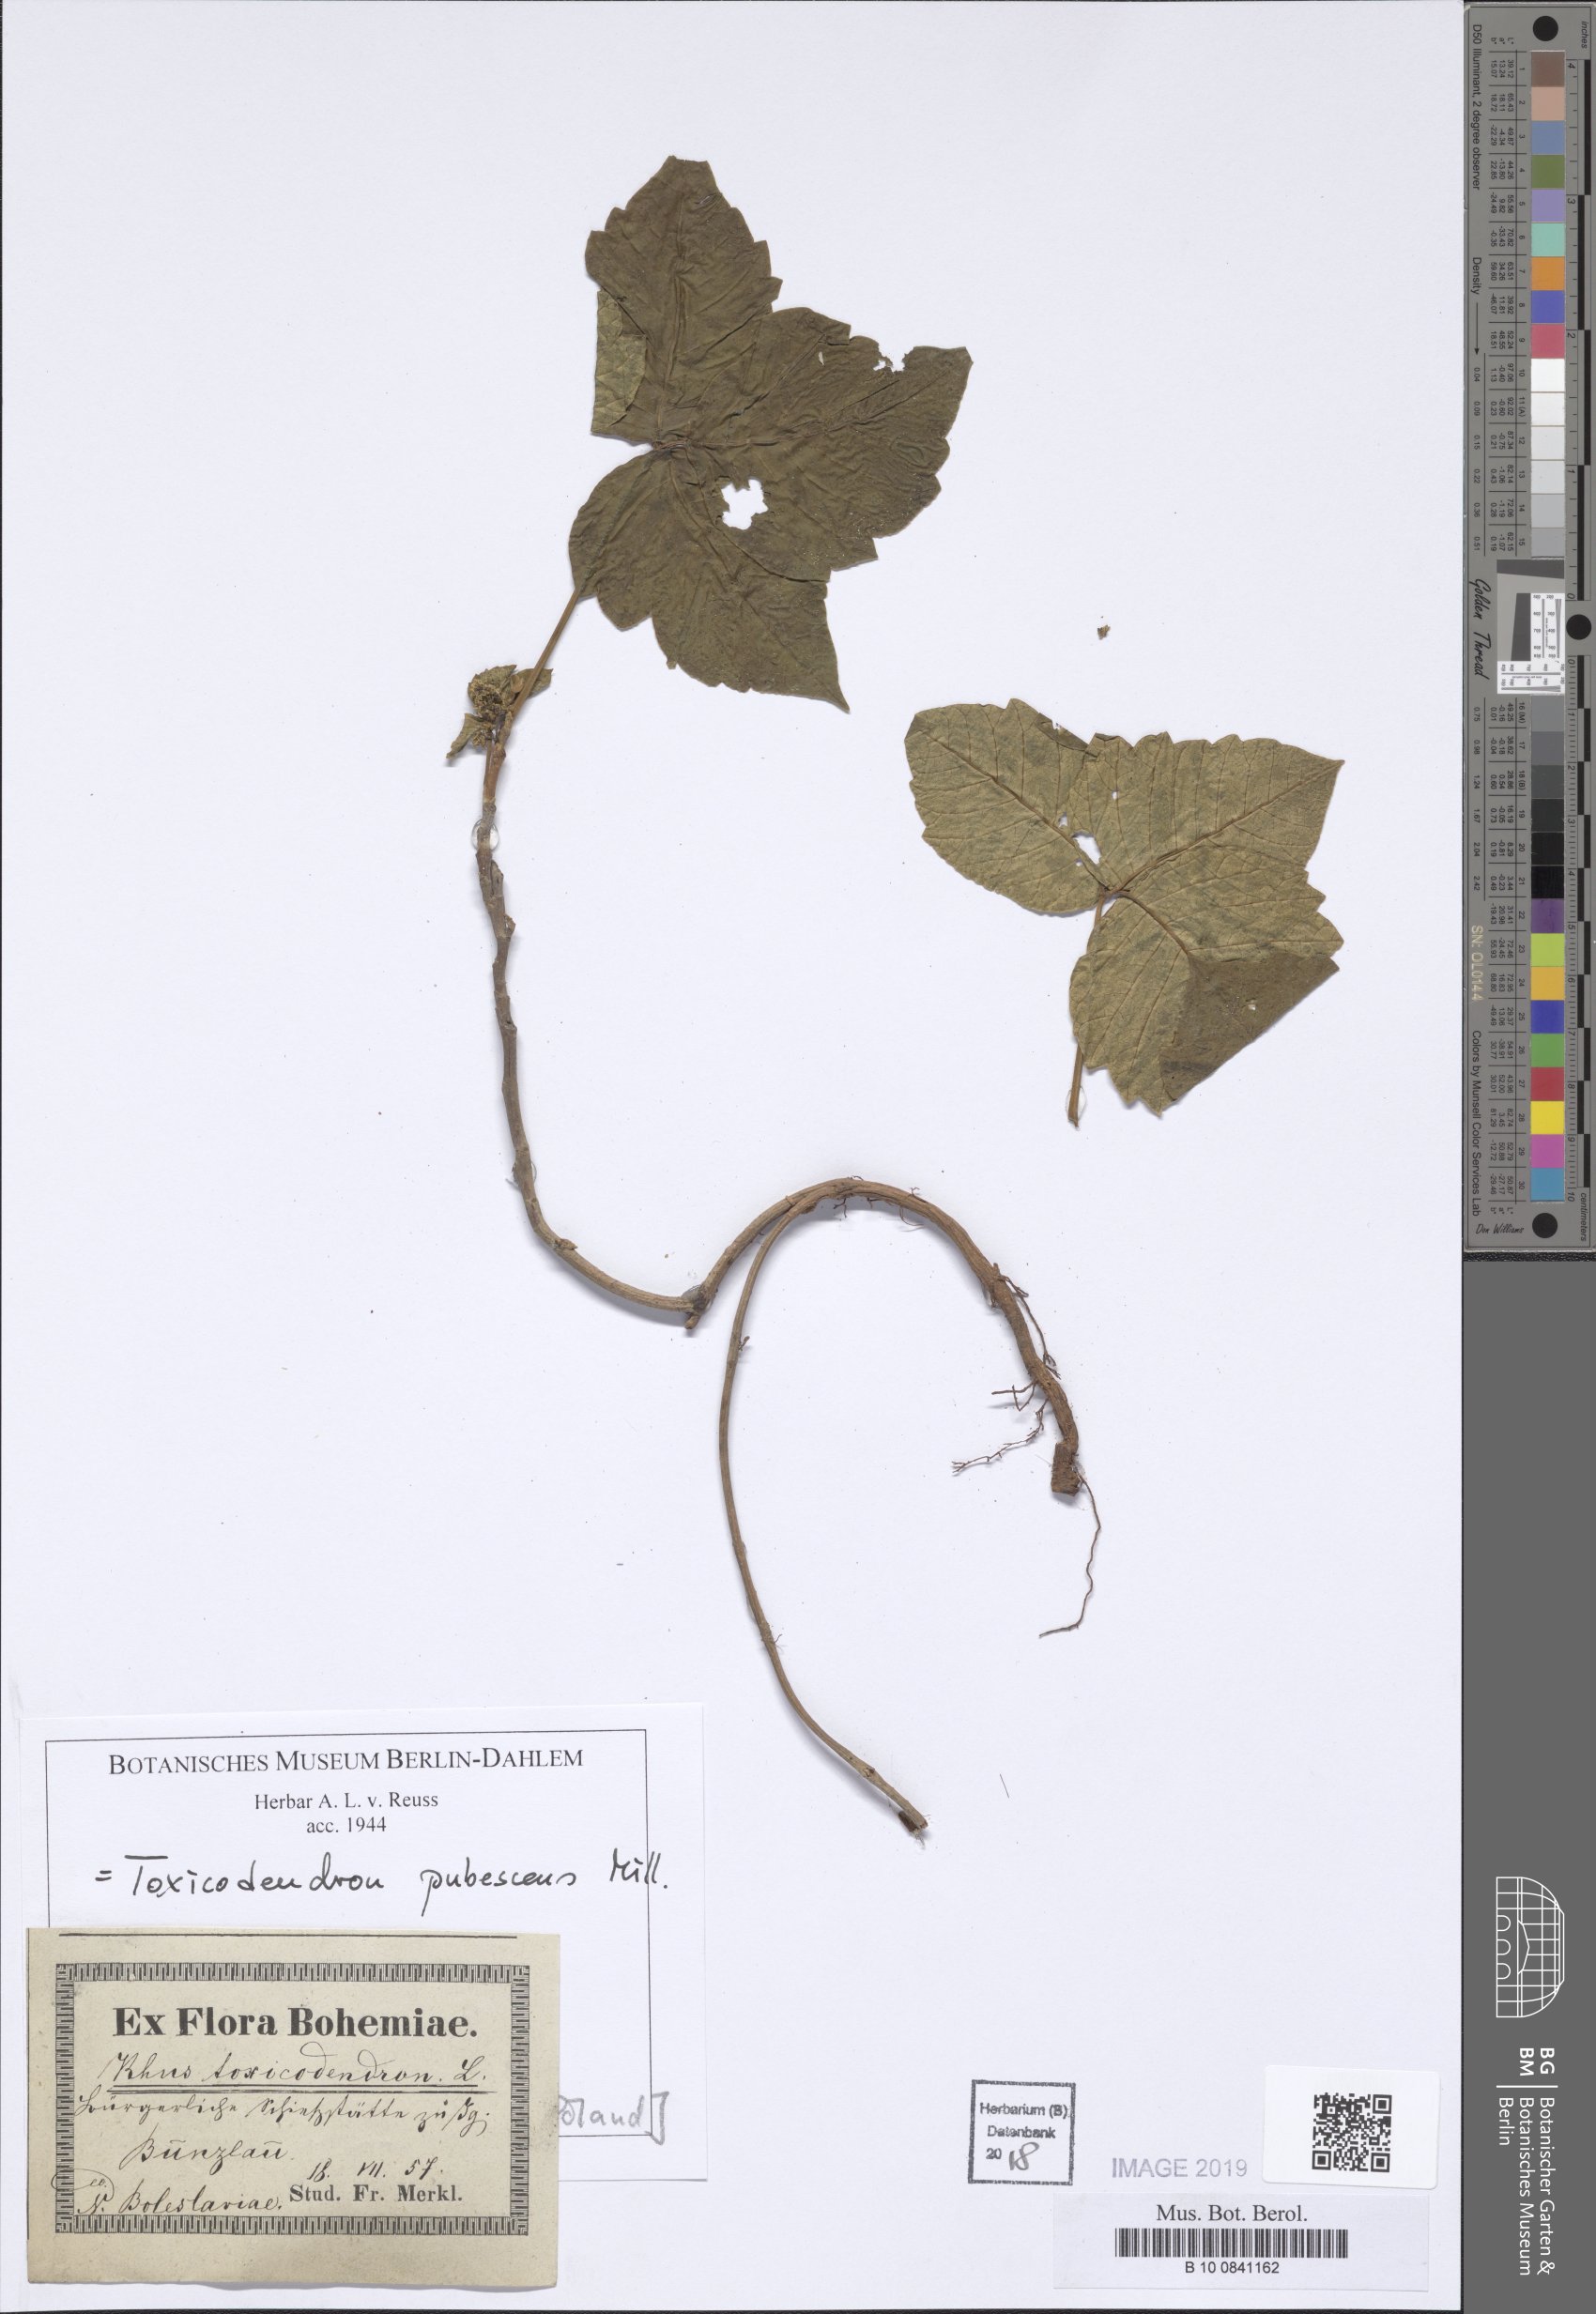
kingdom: Plantae
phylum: Tracheophyta
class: Magnoliopsida
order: Sapindales
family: Anacardiaceae
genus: Toxicodendron
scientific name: Toxicodendron pubescens
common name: Eastern poison-oak
